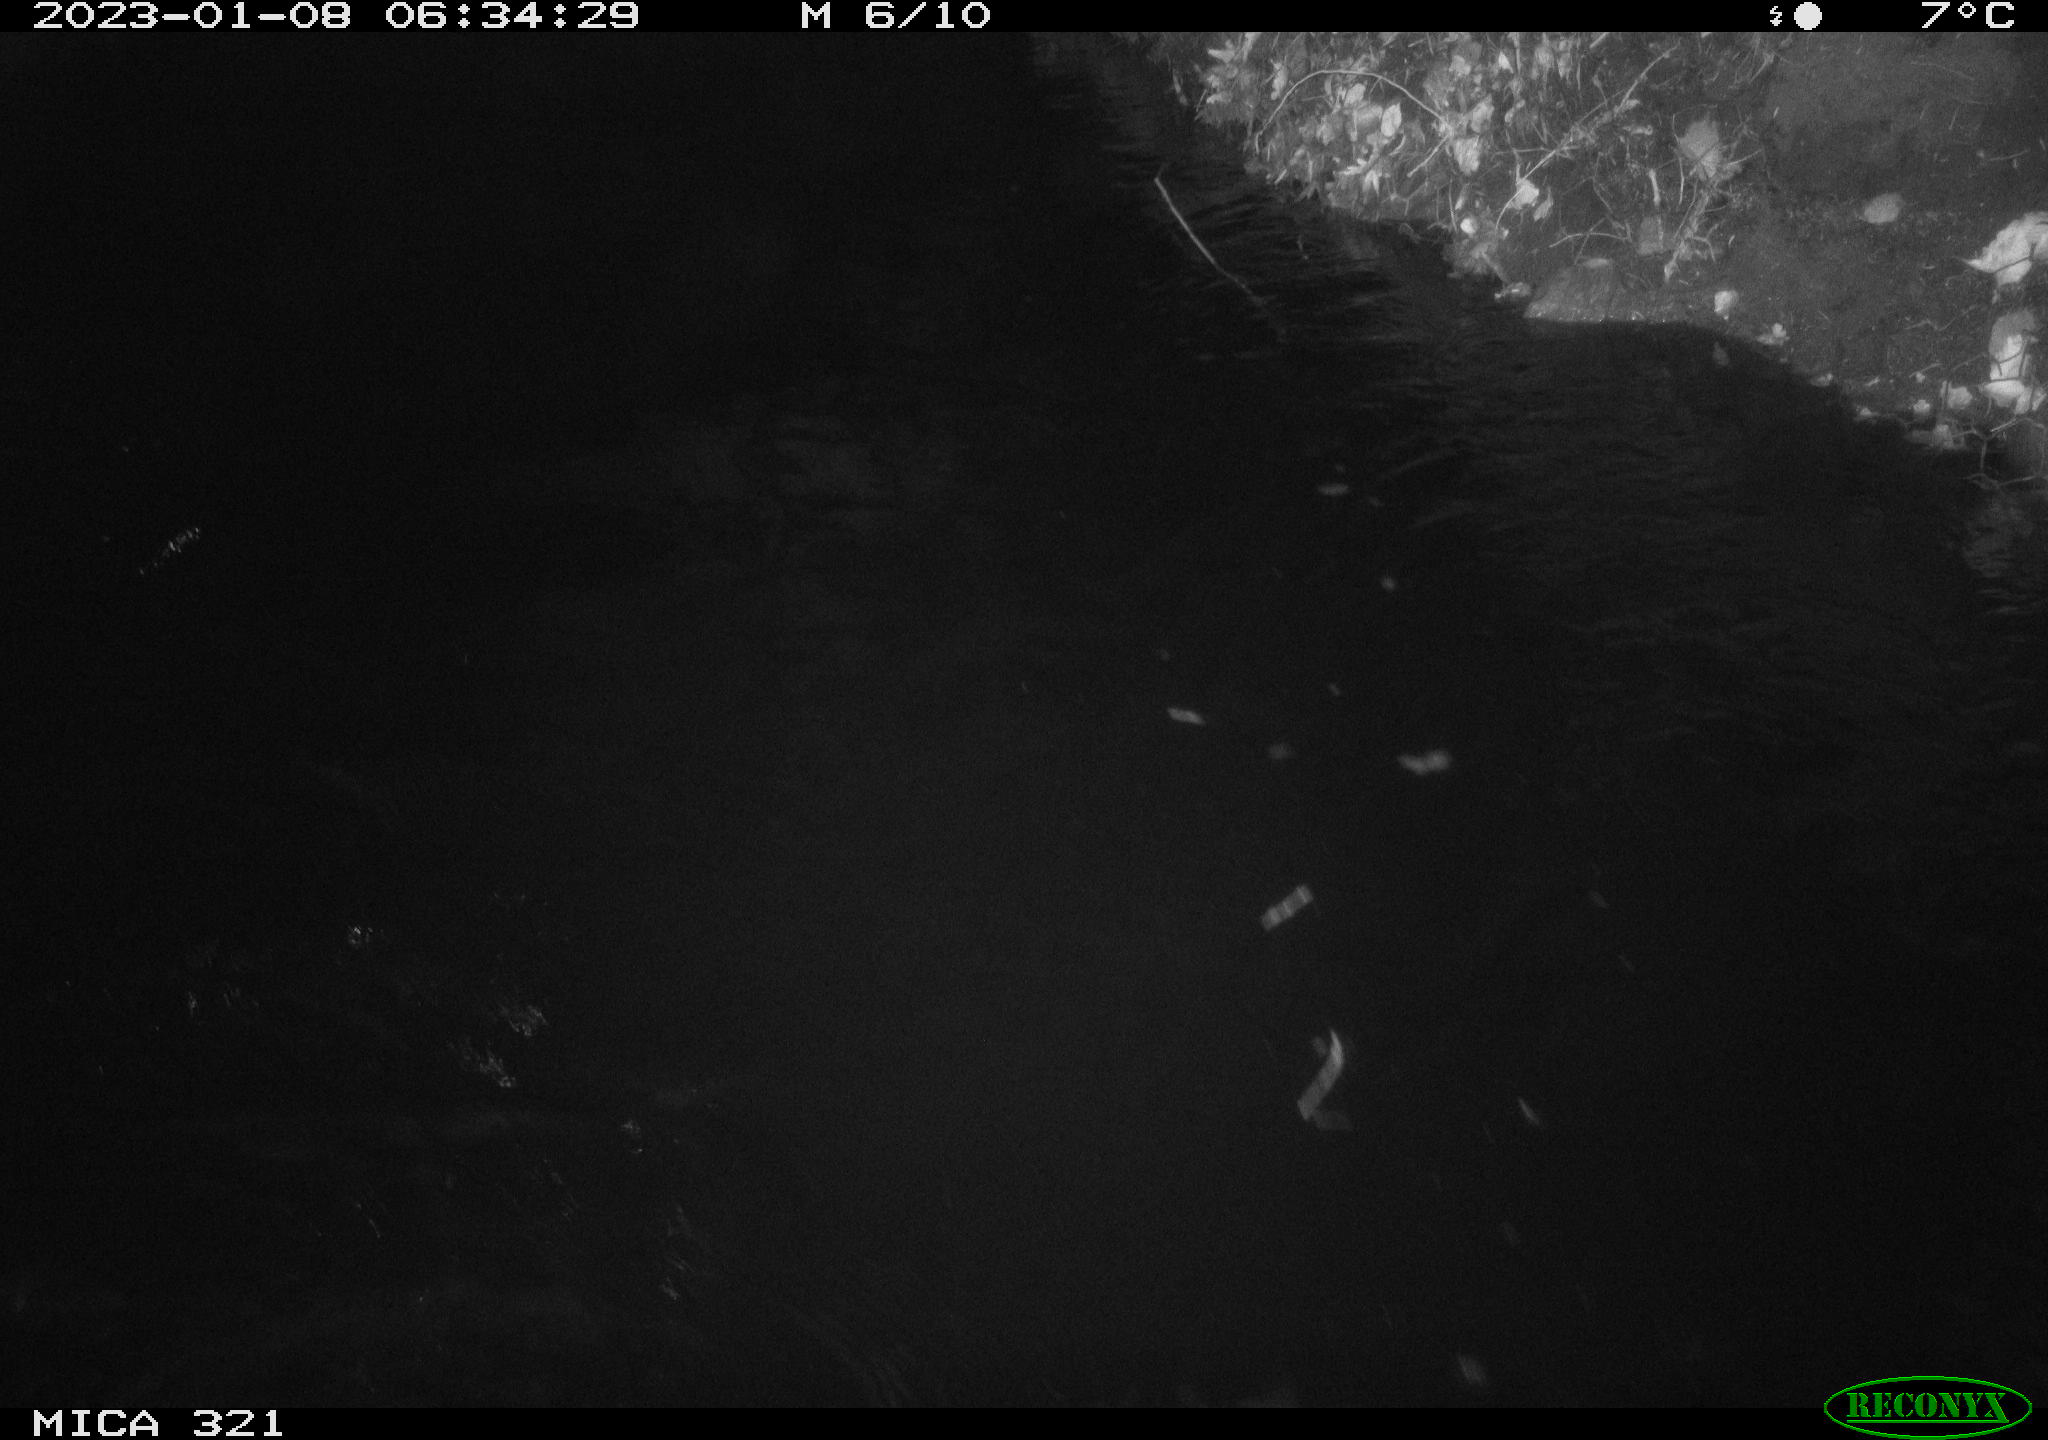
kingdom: Animalia
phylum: Chordata
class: Mammalia
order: Rodentia
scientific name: Rodentia
